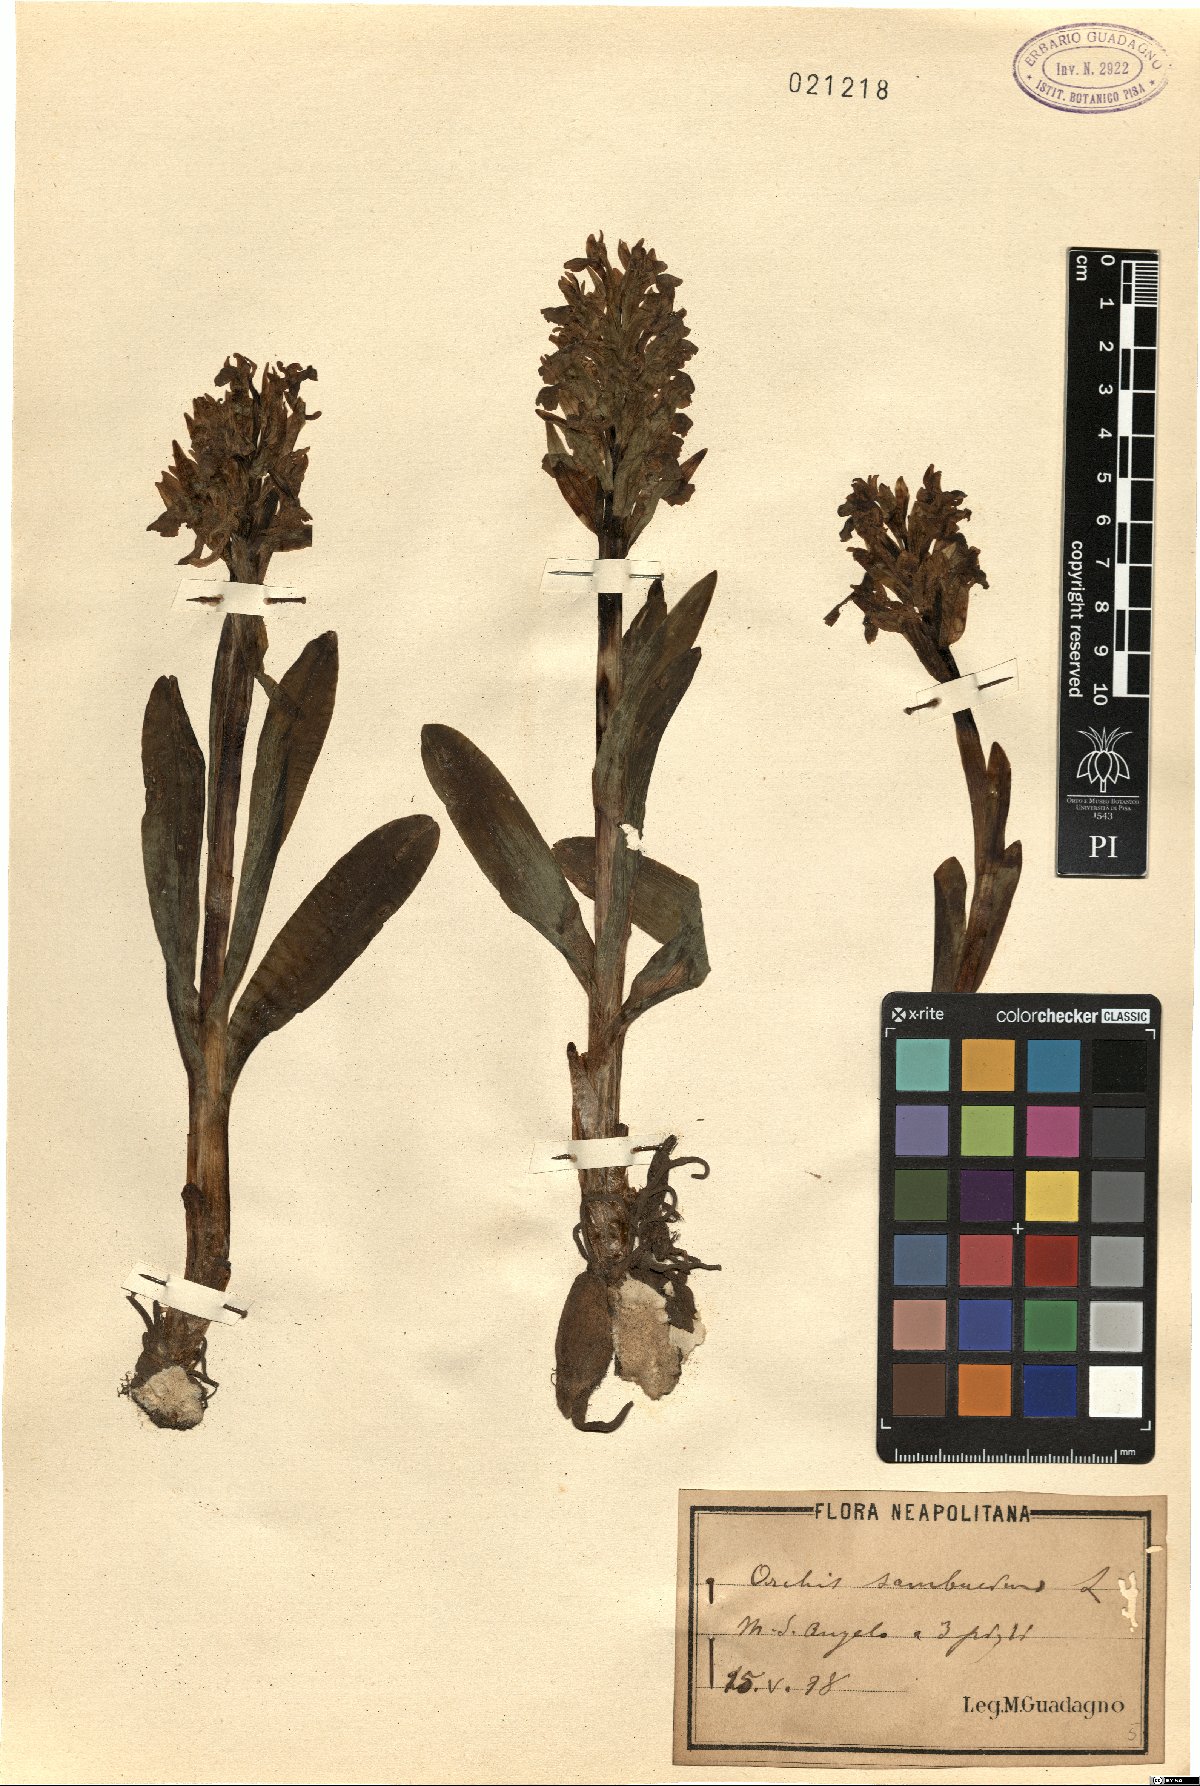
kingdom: Plantae
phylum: Tracheophyta
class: Liliopsida
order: Asparagales
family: Orchidaceae
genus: Dactylorhiza
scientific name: Dactylorhiza sambucina
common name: Elder-flowered orchid
